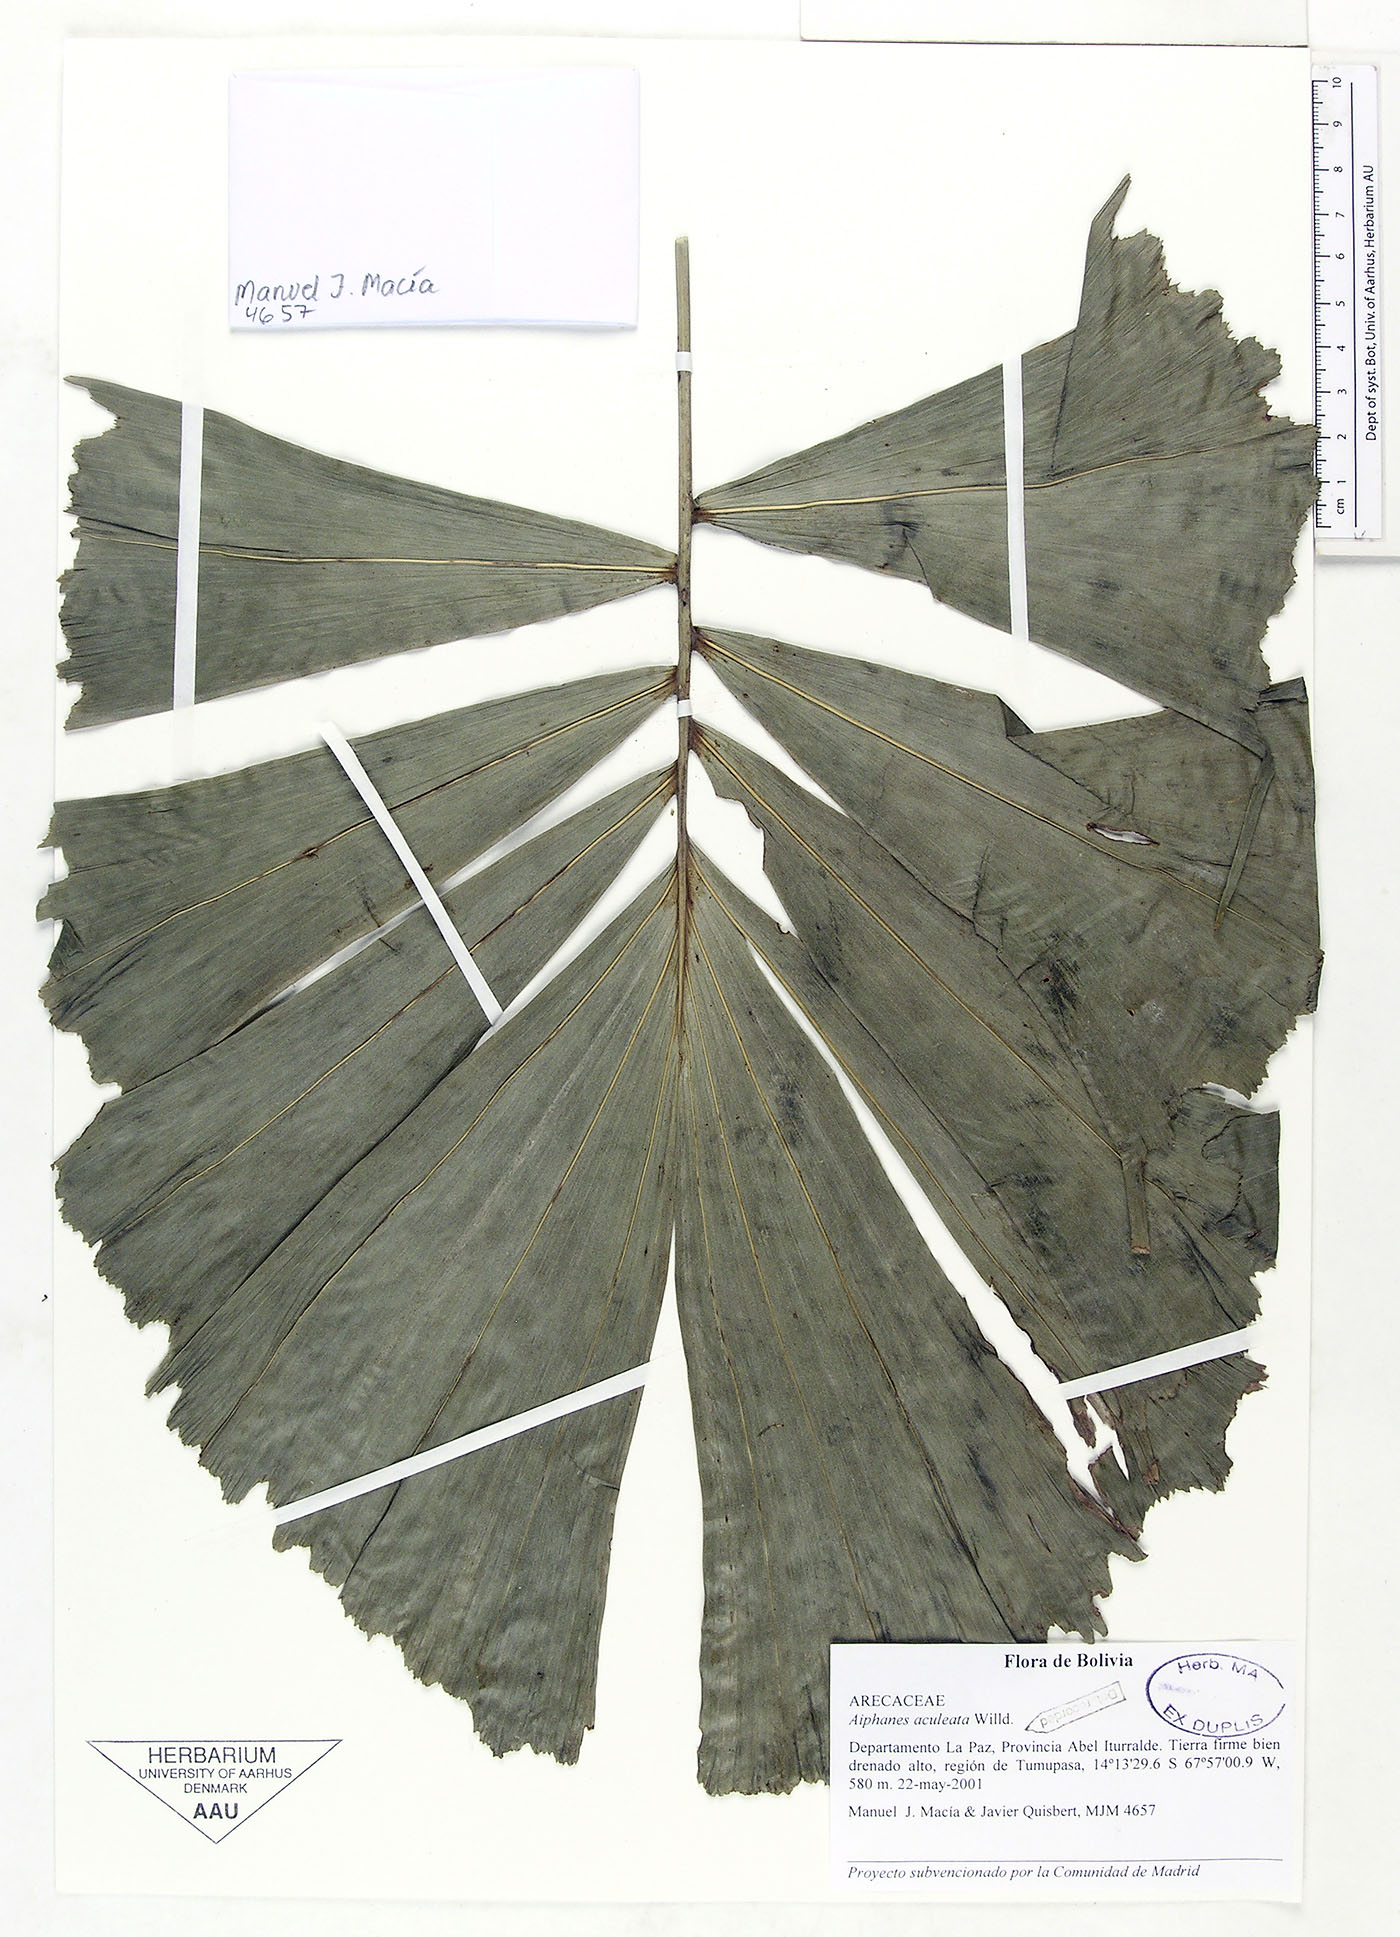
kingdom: Plantae
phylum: Tracheophyta
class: Liliopsida
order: Arecales
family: Arecaceae
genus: Aiphanes
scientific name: Aiphanes horrida
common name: Ruffle palm
